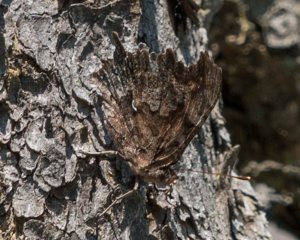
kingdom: Animalia
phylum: Arthropoda
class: Insecta
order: Lepidoptera
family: Nymphalidae
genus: Polygonia
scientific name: Polygonia faunus
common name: Green Comma
